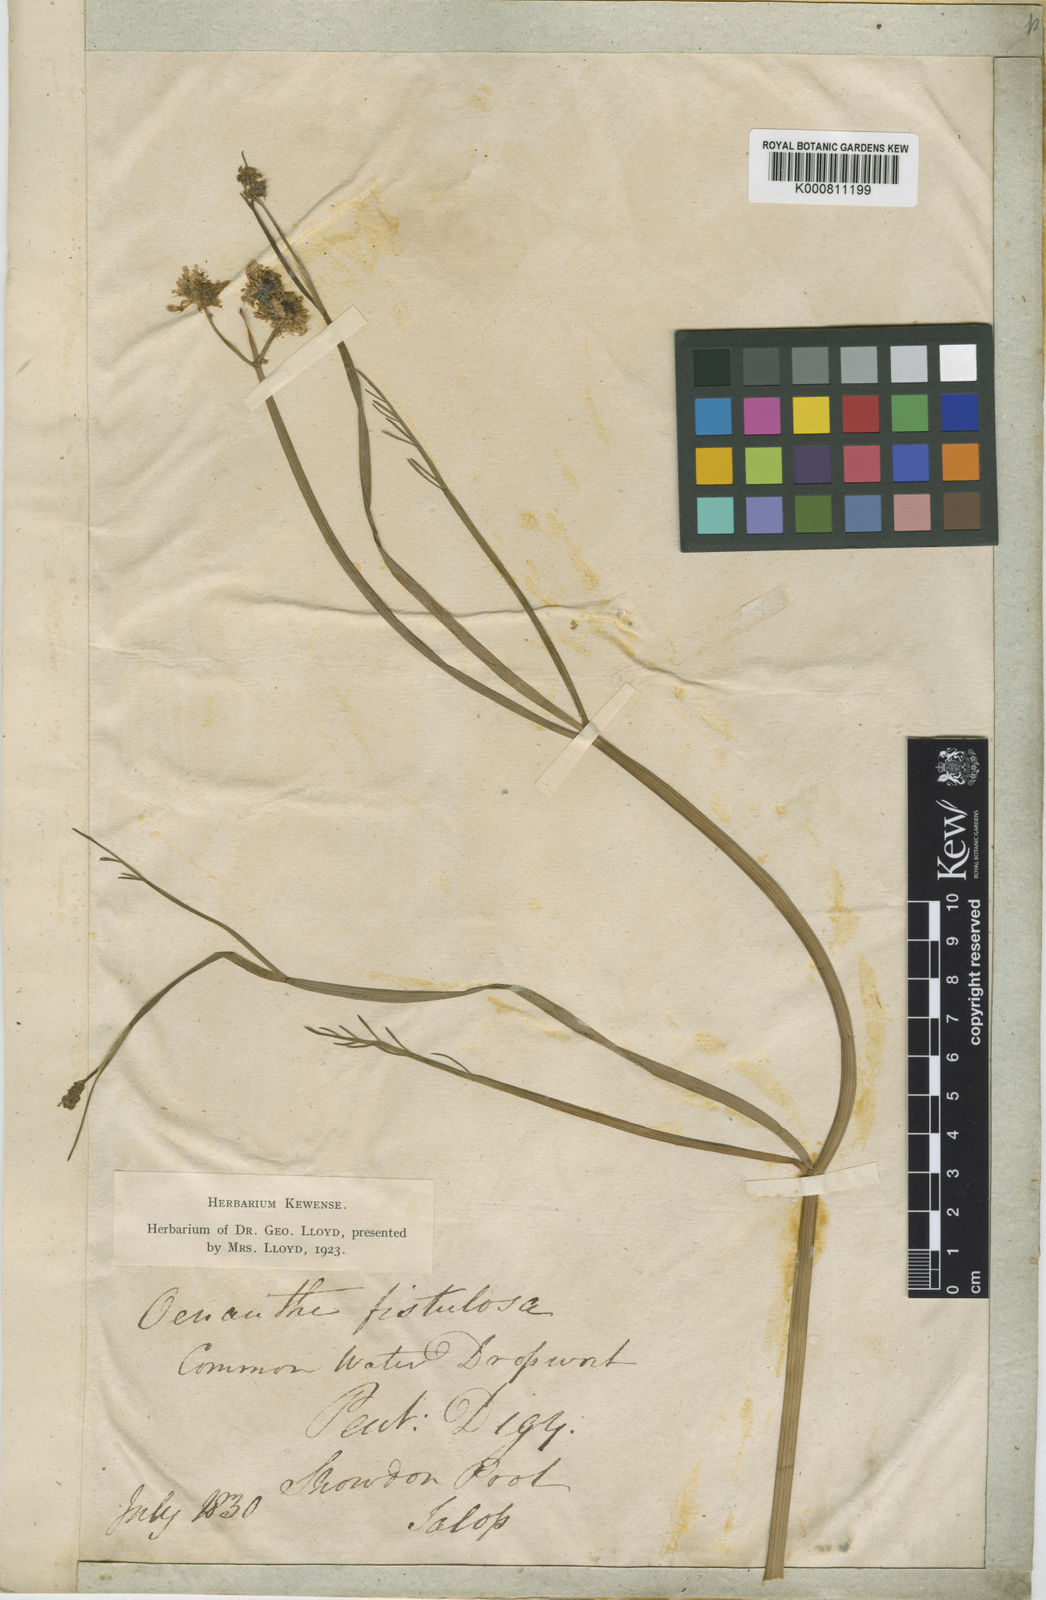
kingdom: Plantae
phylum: Tracheophyta
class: Magnoliopsida
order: Apiales
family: Apiaceae
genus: Oenanthe
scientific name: Oenanthe fistulosa
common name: Tubular water-dropwort
